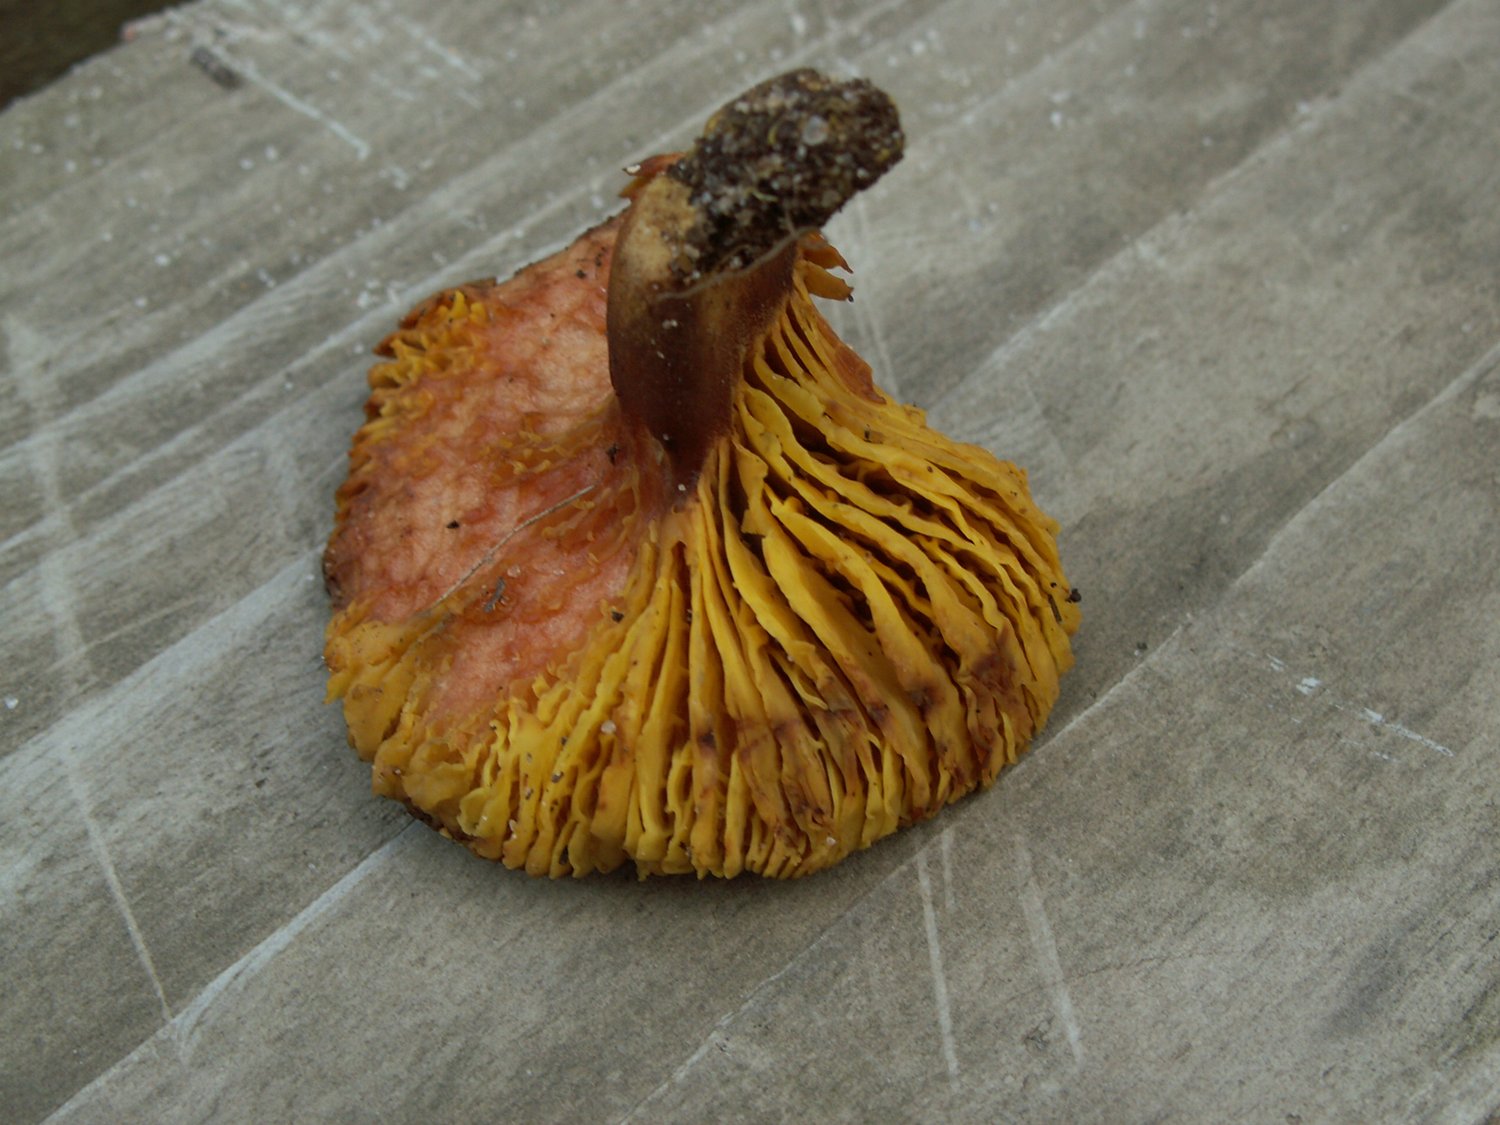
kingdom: Fungi
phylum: Basidiomycota
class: Agaricomycetes
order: Boletales
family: Boletaceae
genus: Phylloporus
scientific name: Phylloporus pelletieri
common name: lamelrørhat
